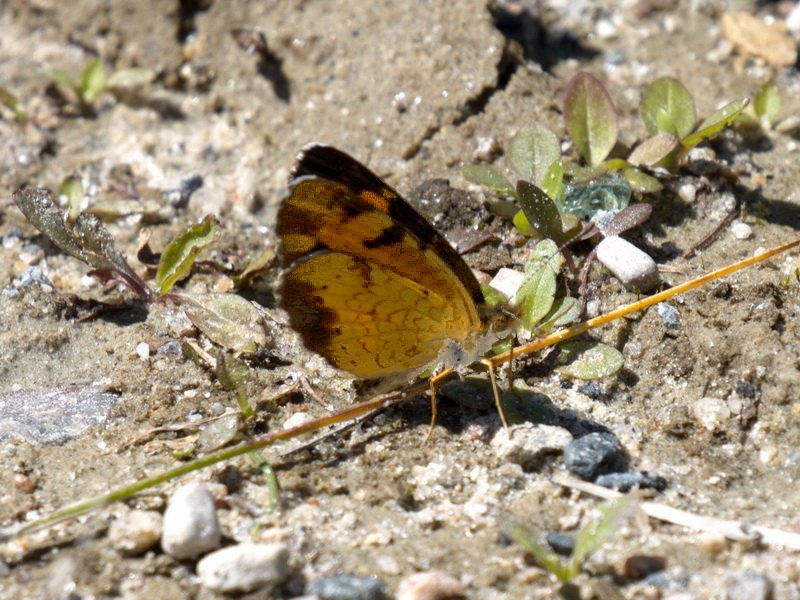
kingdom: Animalia
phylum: Arthropoda
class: Insecta
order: Lepidoptera
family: Nymphalidae
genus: Phyciodes
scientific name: Phyciodes tharos
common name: Northern Crescent
